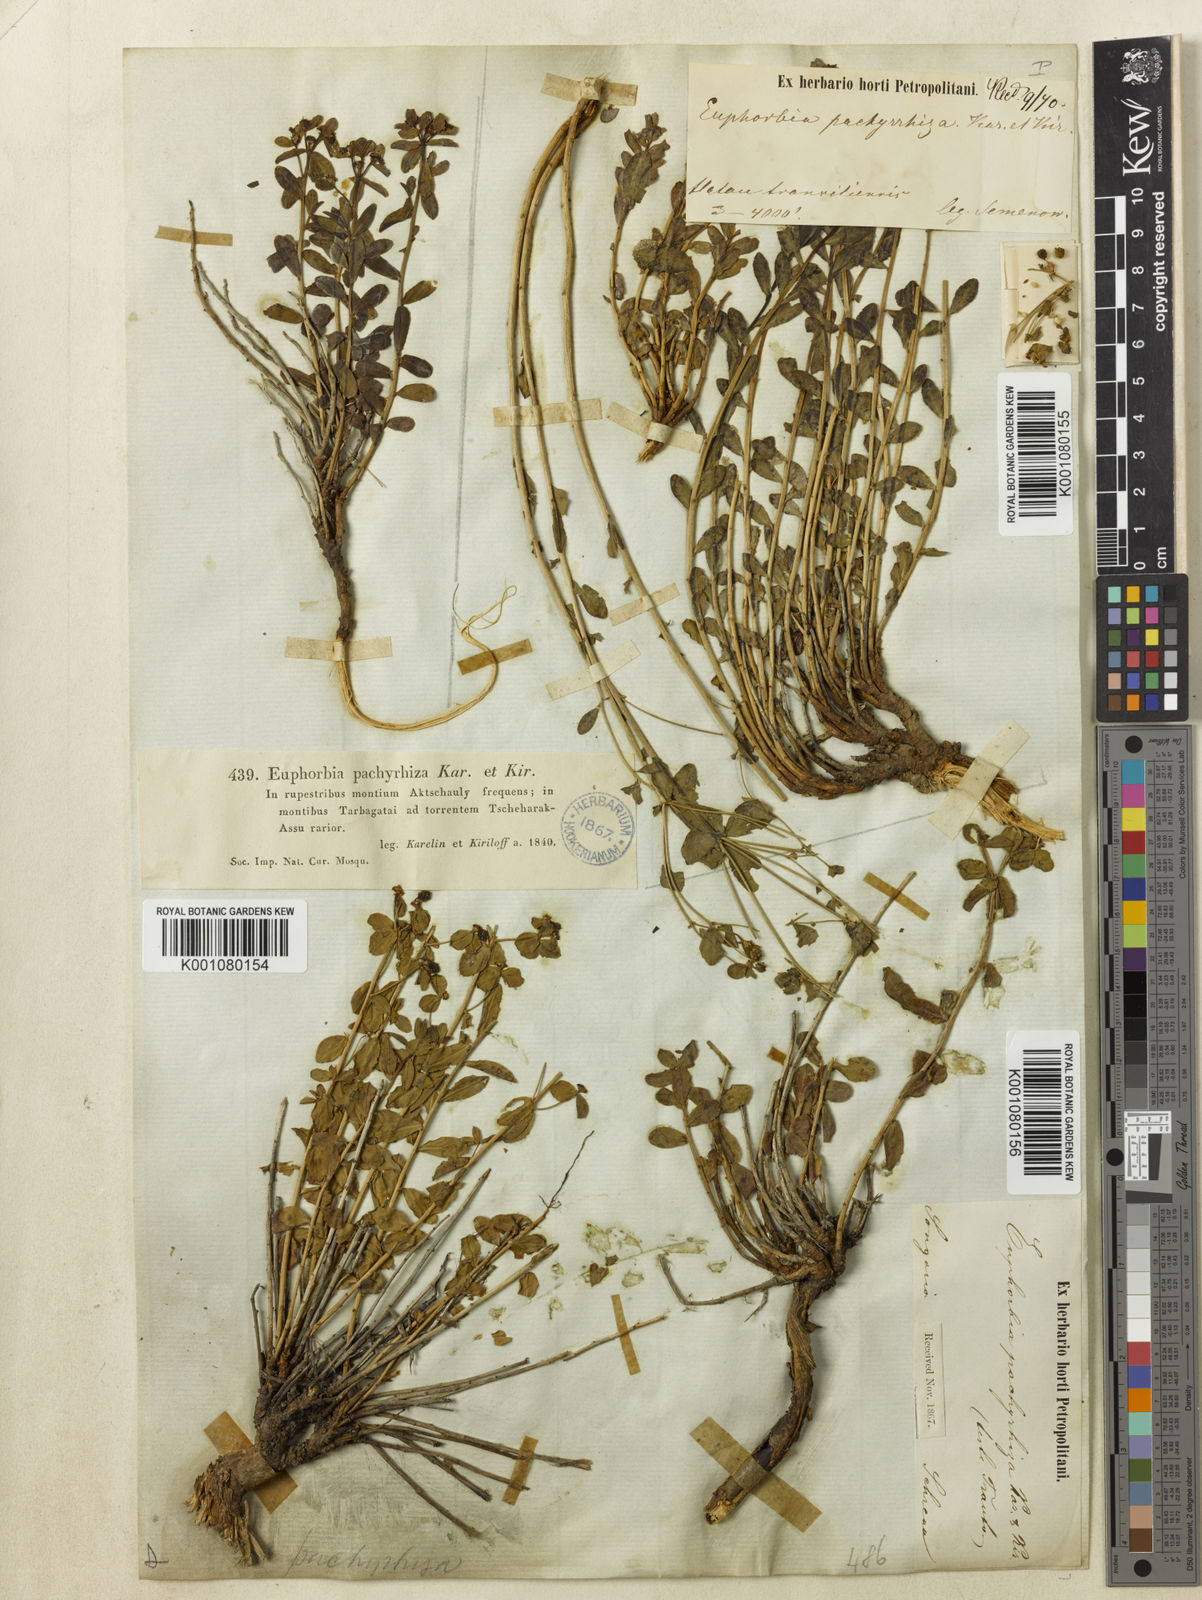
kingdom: Plantae
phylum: Tracheophyta
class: Magnoliopsida
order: Fabales
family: Fabaceae
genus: Erythrina
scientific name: Erythrina suberosa
